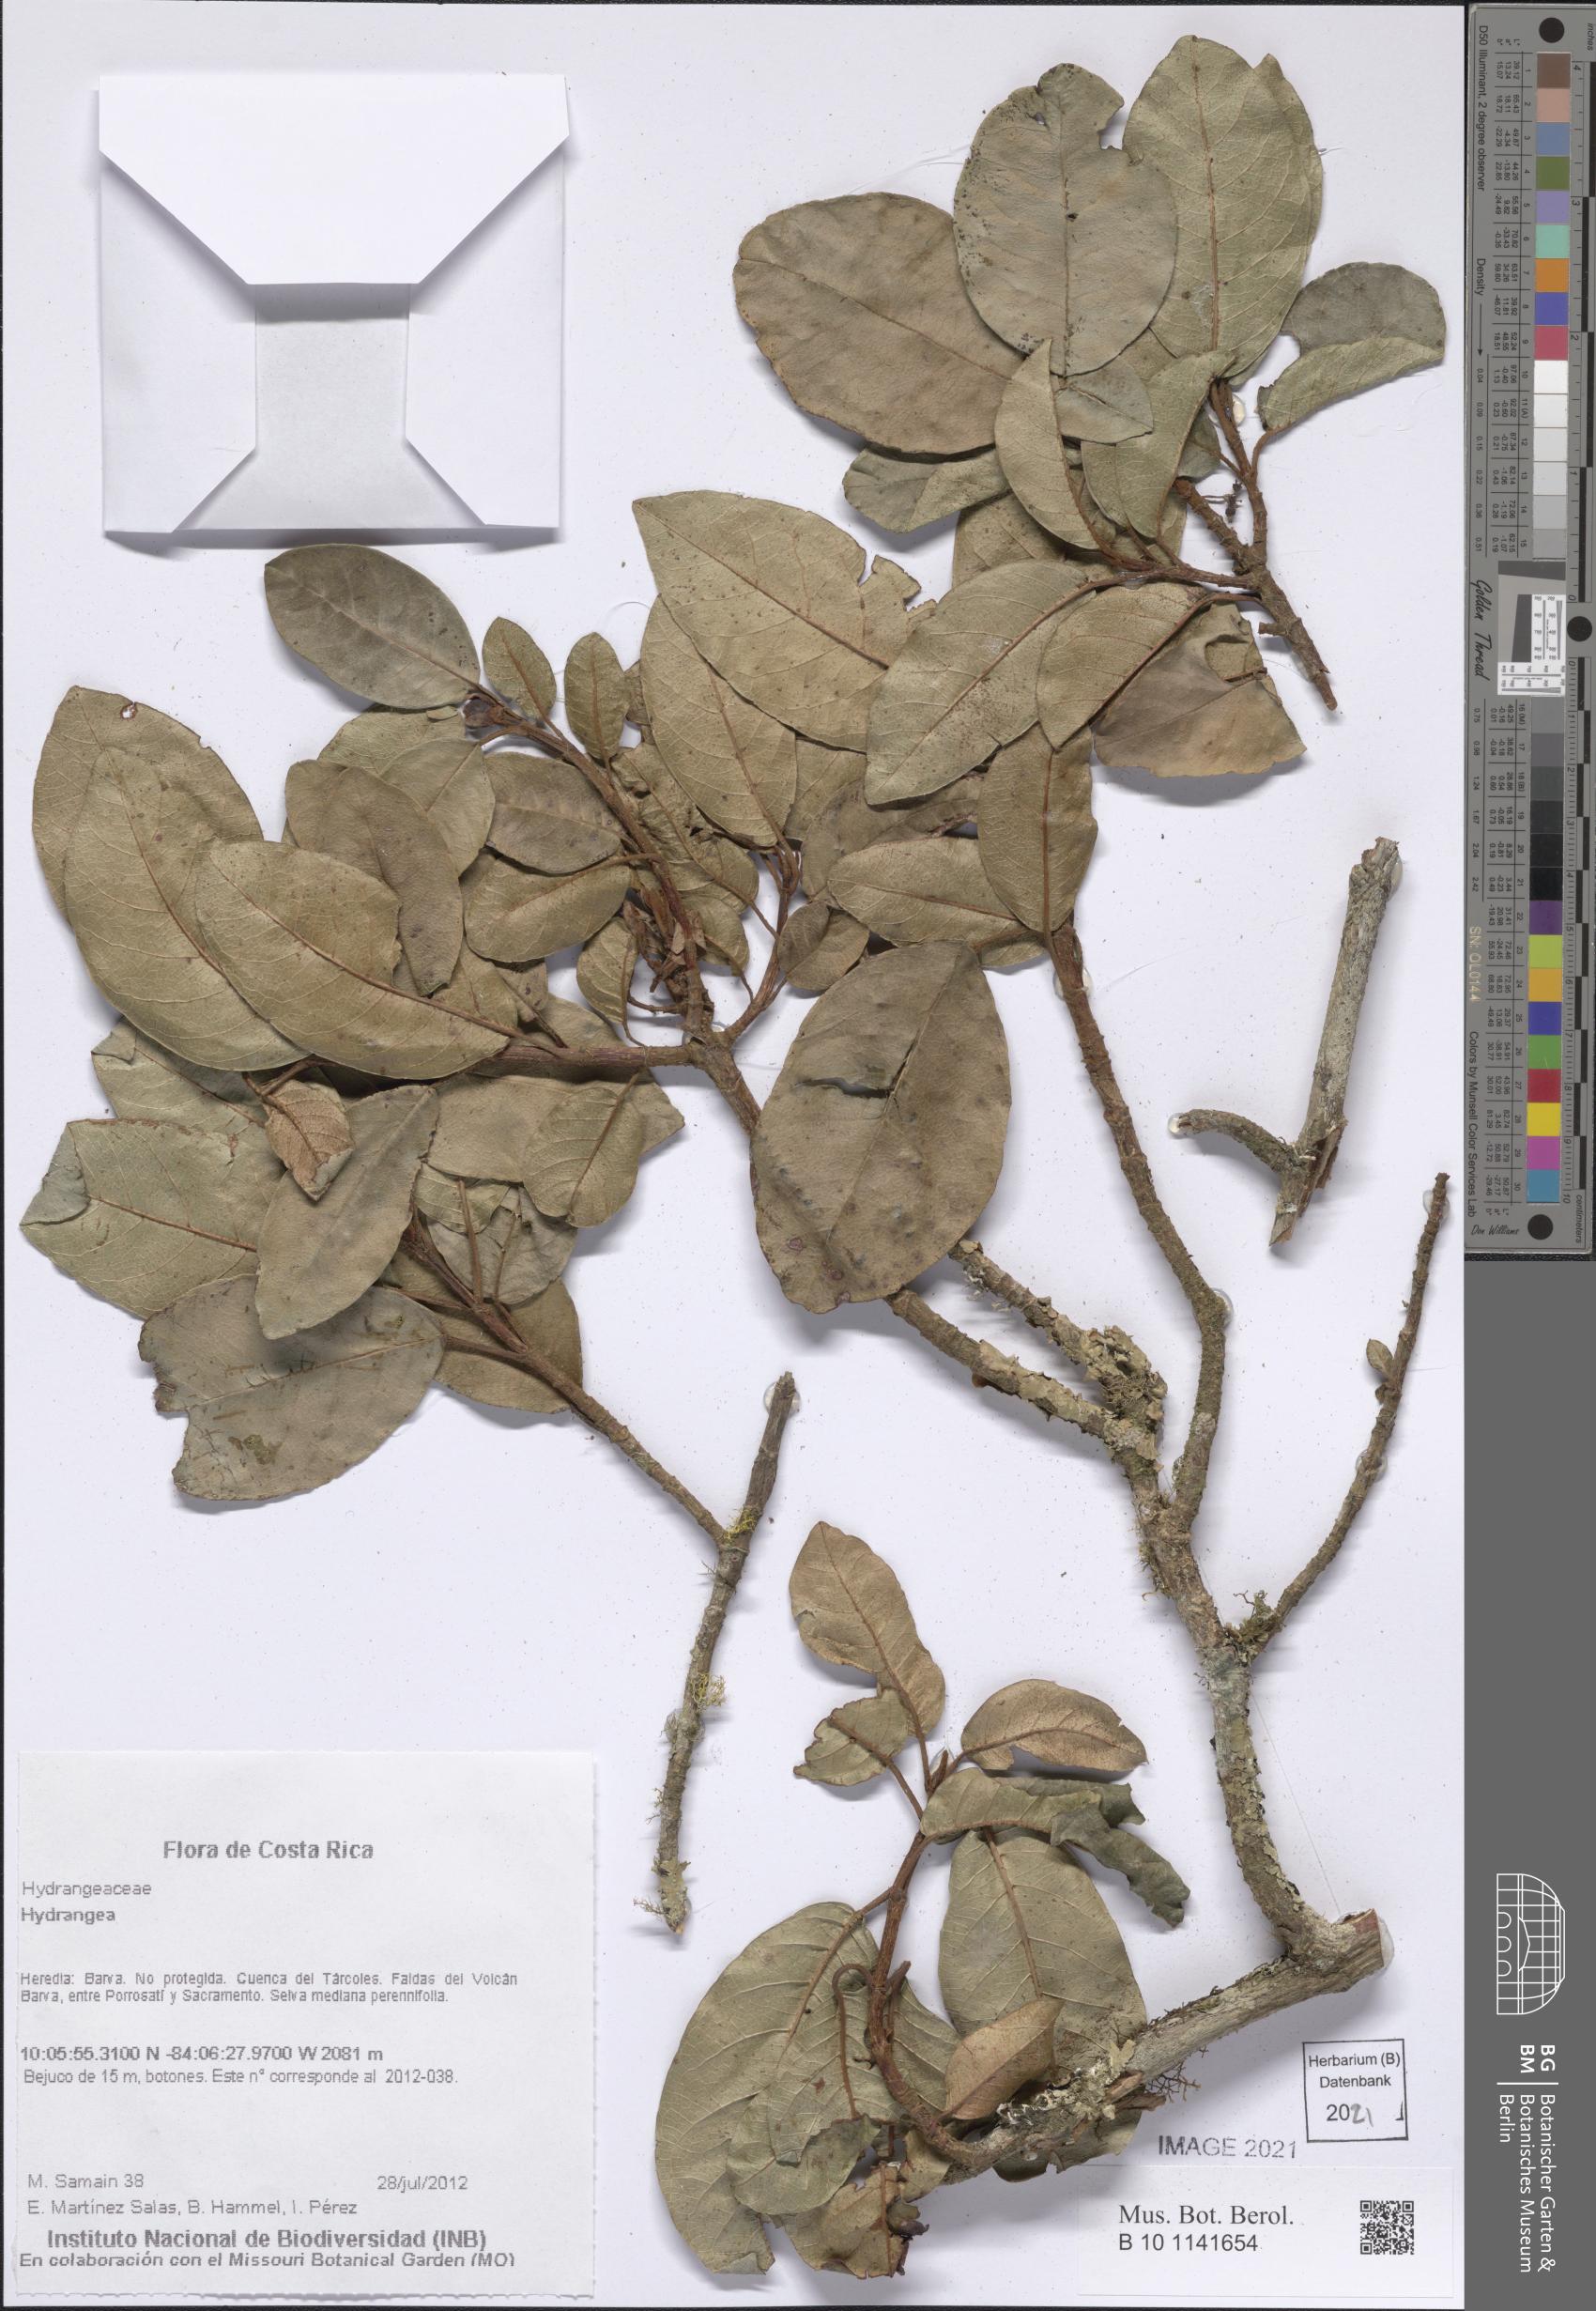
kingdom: Plantae
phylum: Tracheophyta
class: Magnoliopsida
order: Cornales
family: Hydrangeaceae
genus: Hydrangea
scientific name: Hydrangea
